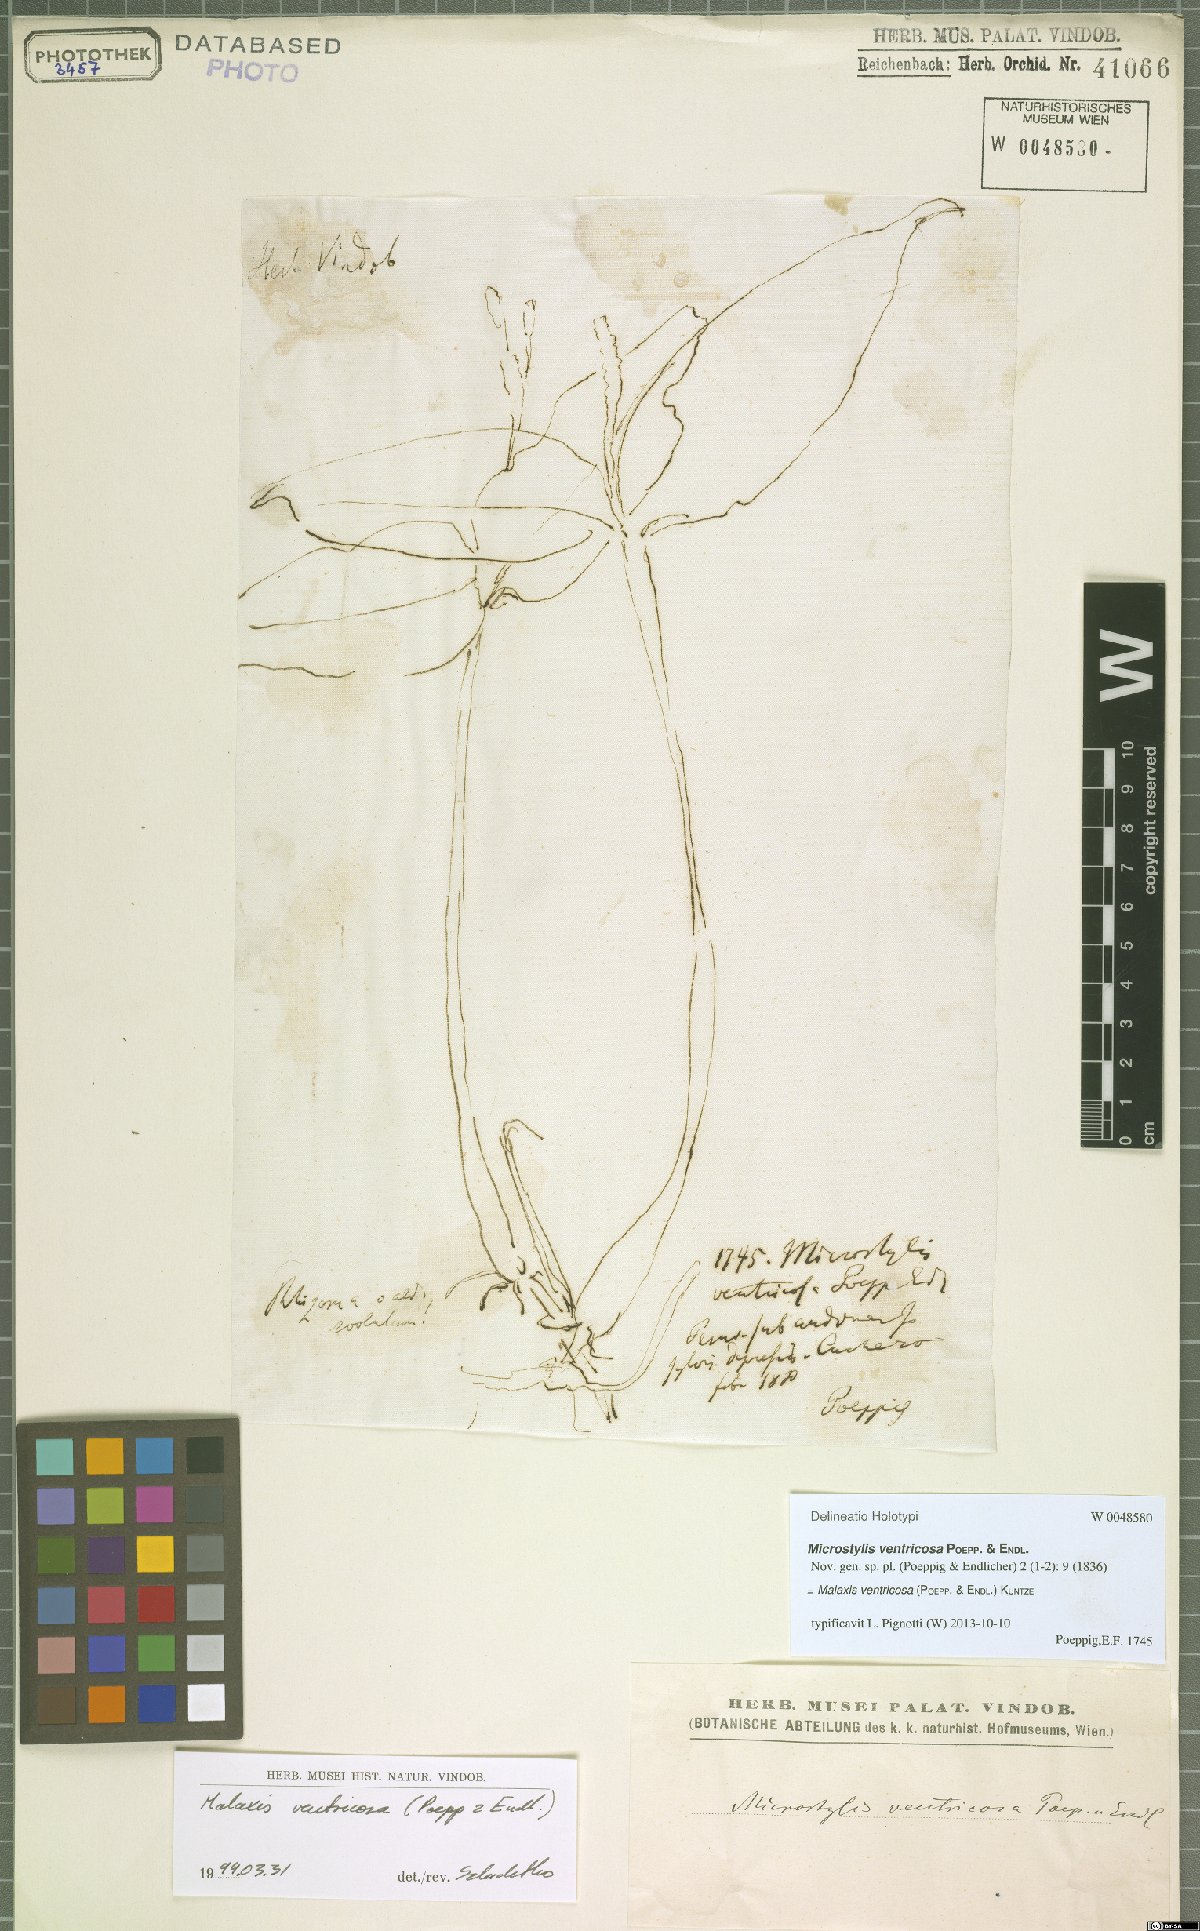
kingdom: Plantae
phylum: Tracheophyta
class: Liliopsida
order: Asparagales
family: Orchidaceae
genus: Malaxis
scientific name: Malaxis ventricosa
